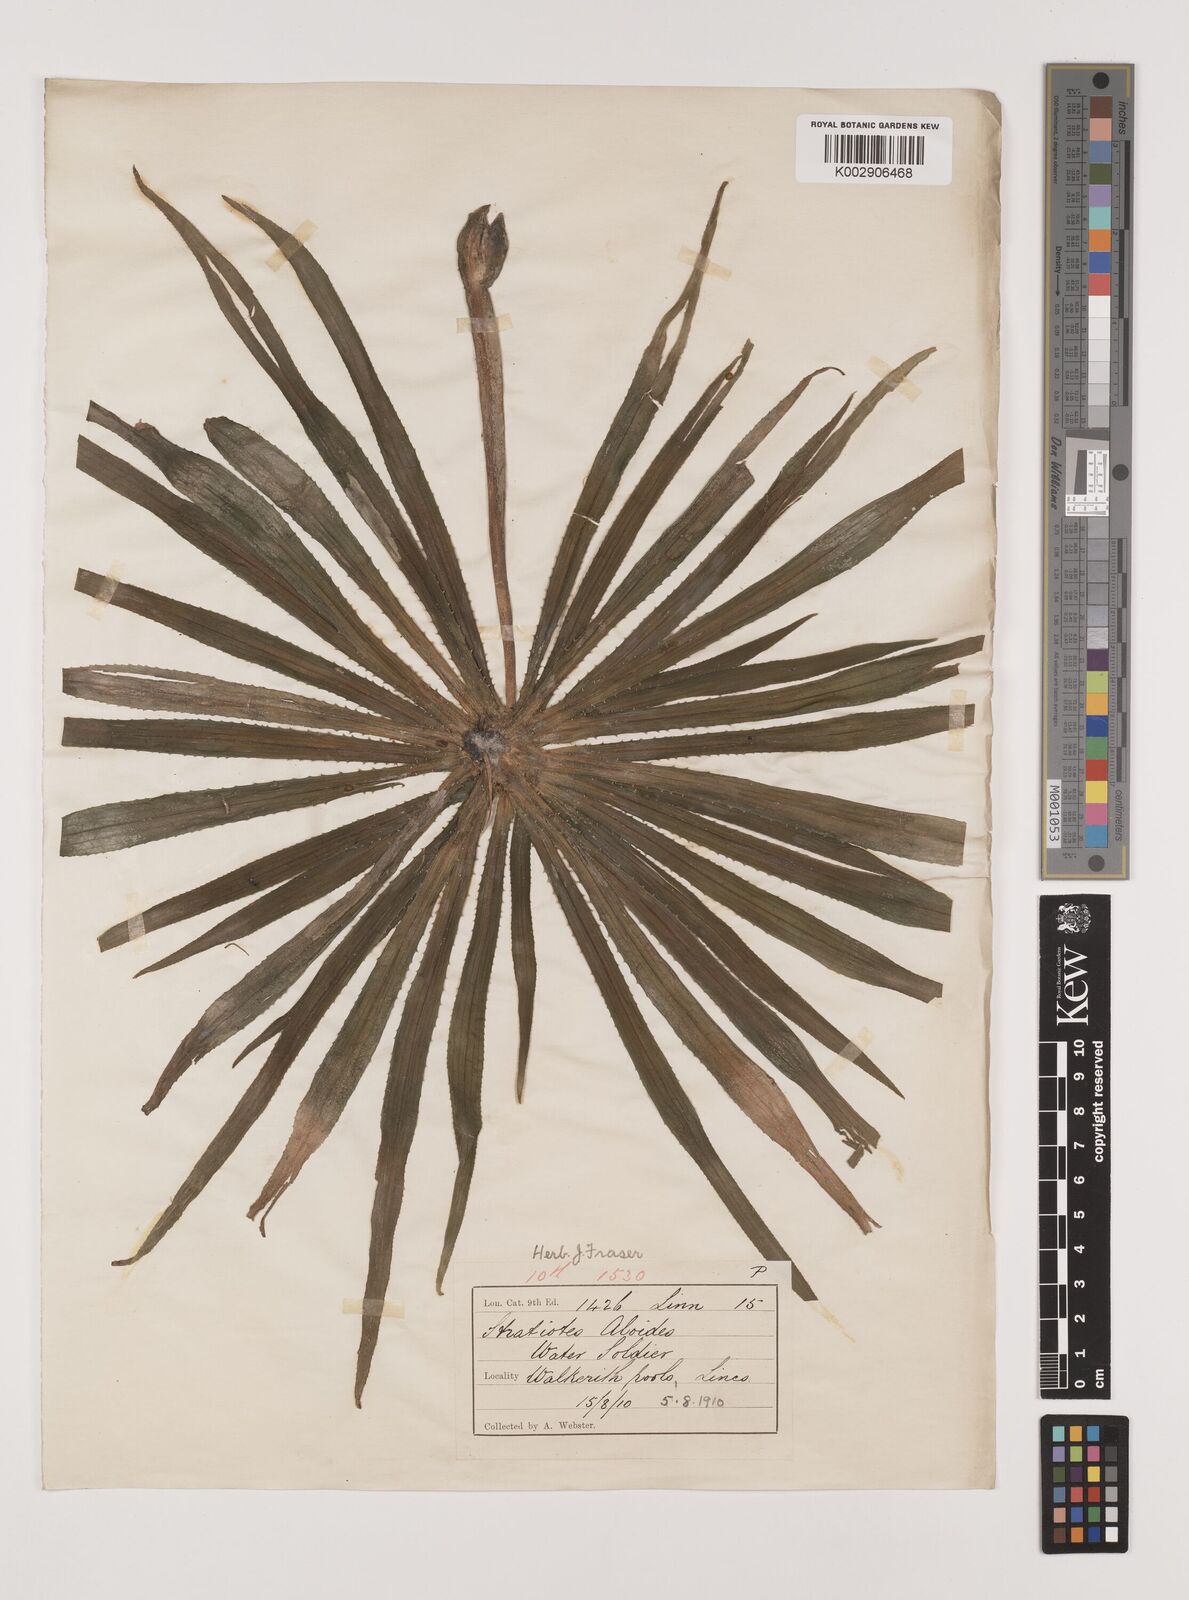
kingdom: Plantae
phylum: Tracheophyta
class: Liliopsida
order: Alismatales
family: Hydrocharitaceae
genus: Stratiotes
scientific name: Stratiotes aloides
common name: Water-soldier
